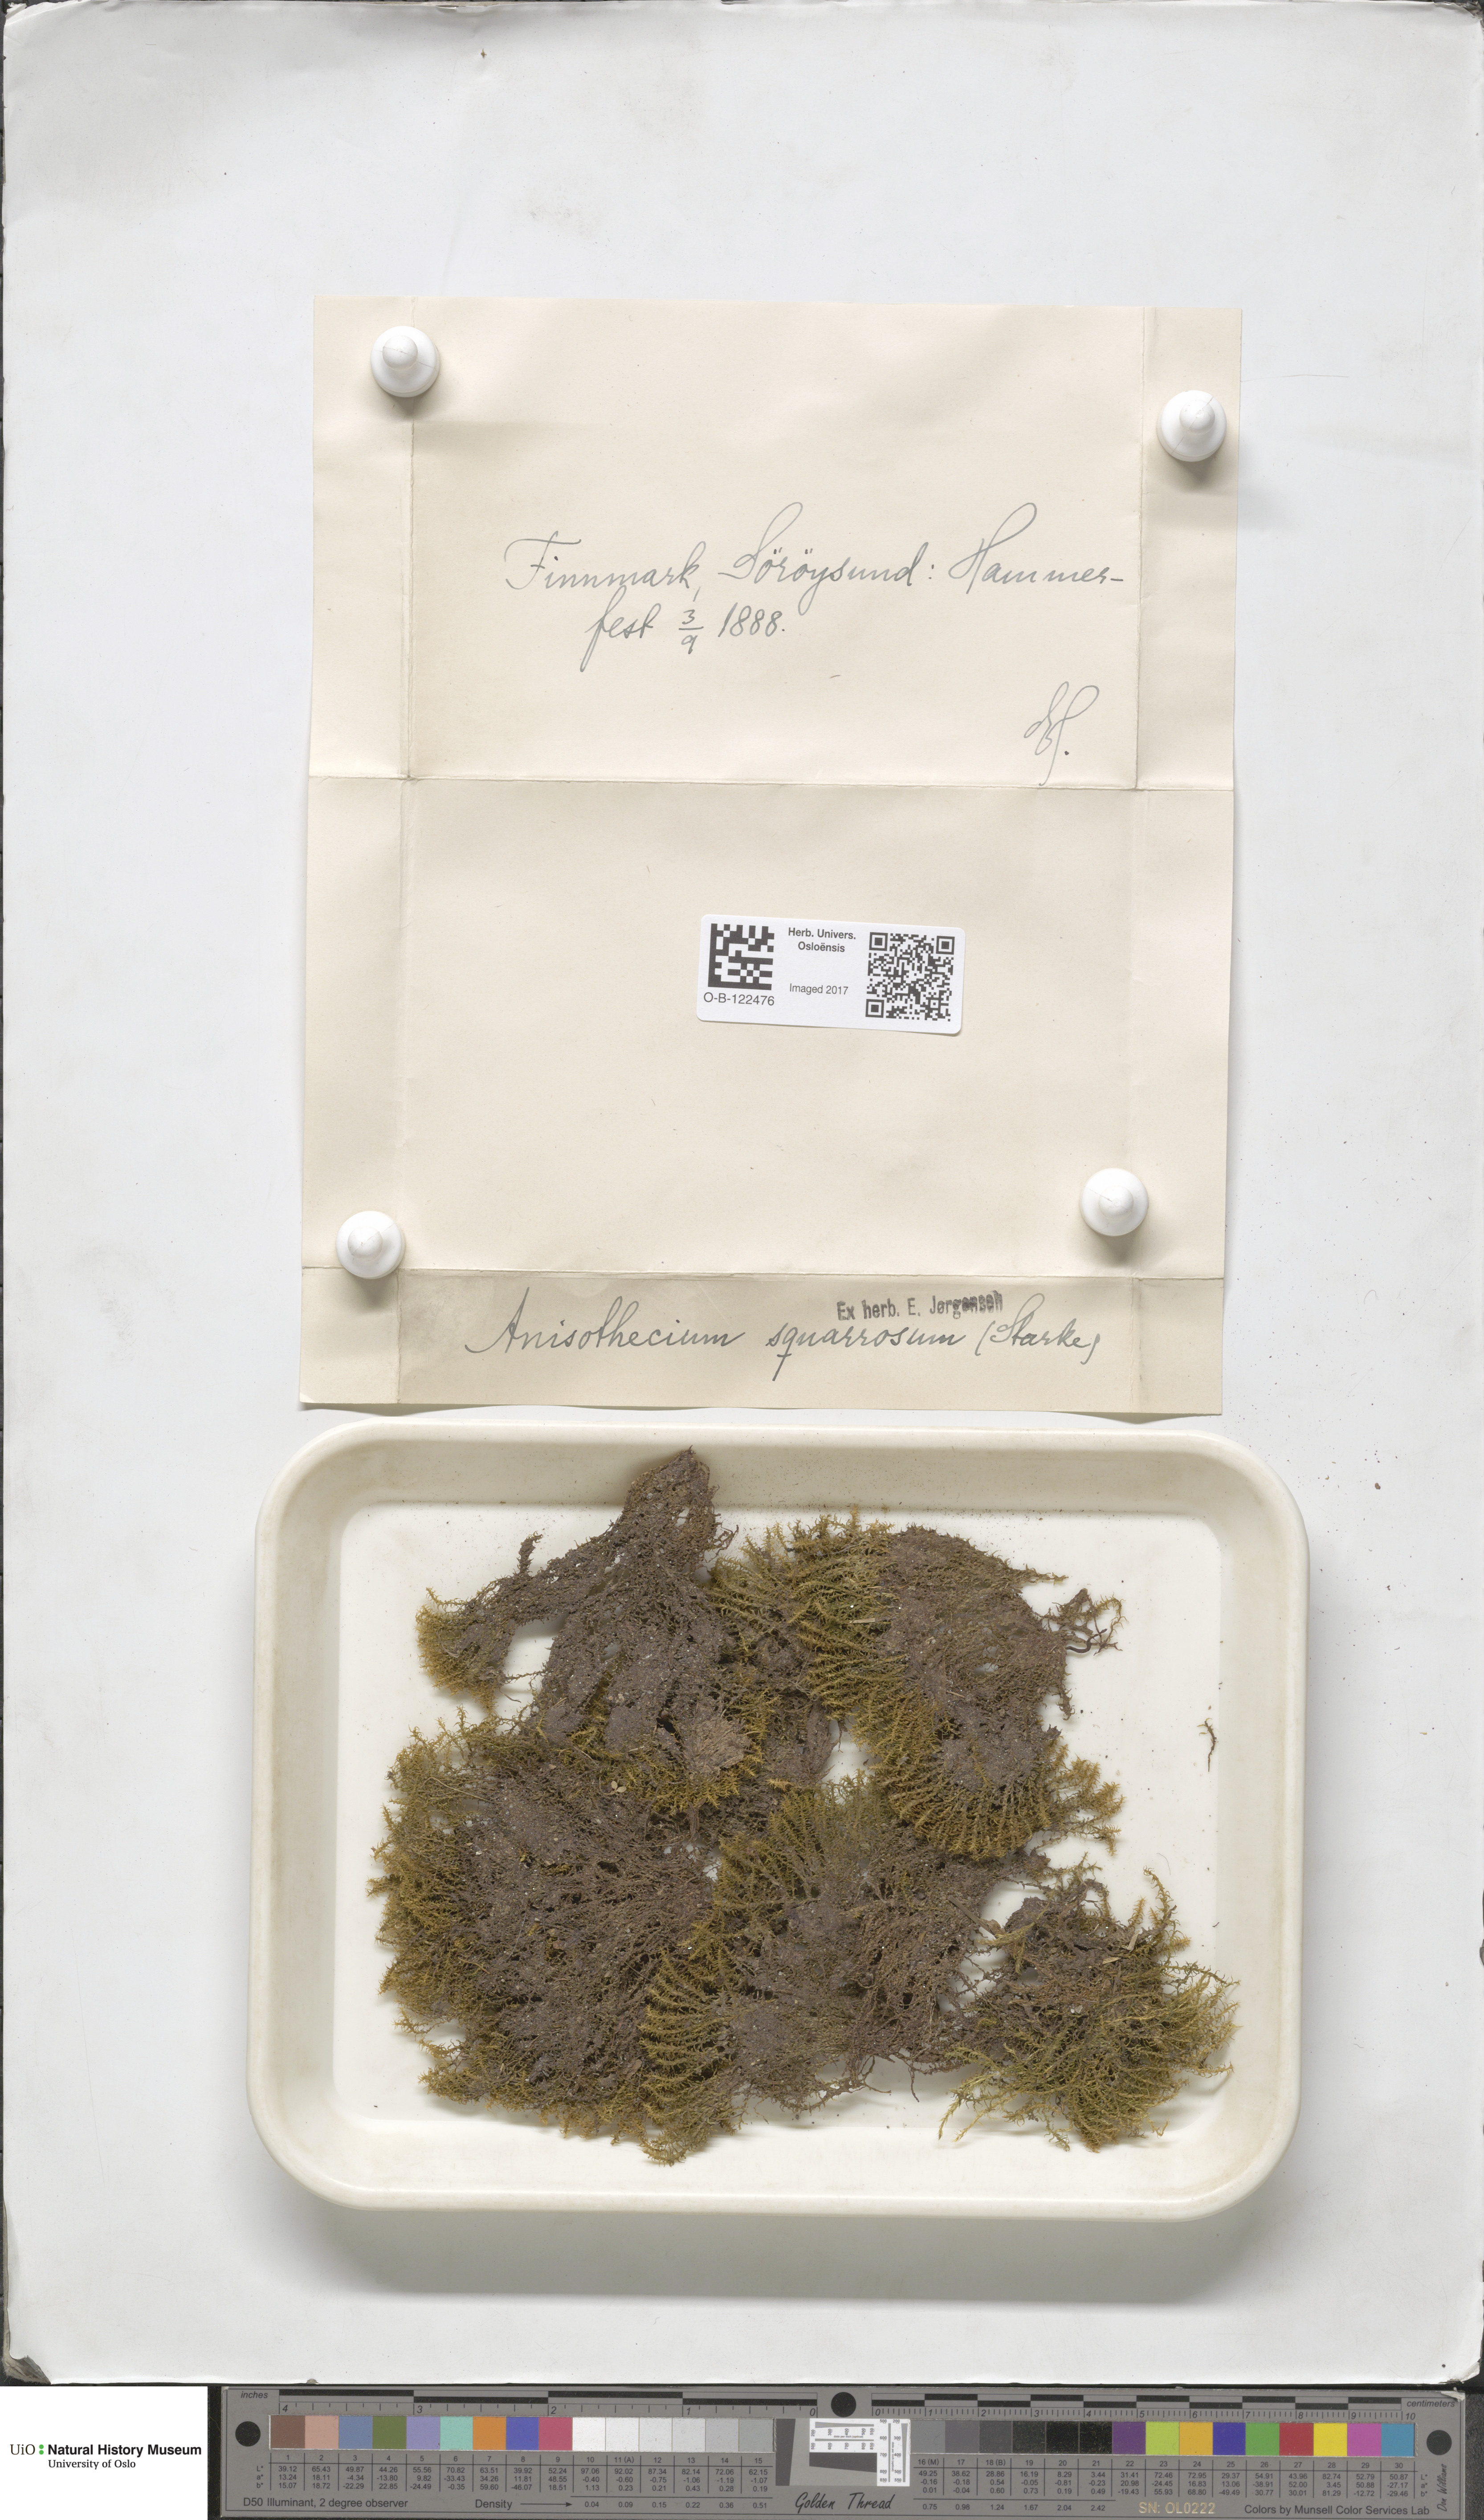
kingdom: Plantae
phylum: Bryophyta
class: Bryopsida
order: Dicranales
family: Aongstroemiaceae
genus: Diobelonella
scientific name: Diobelonella palustris
